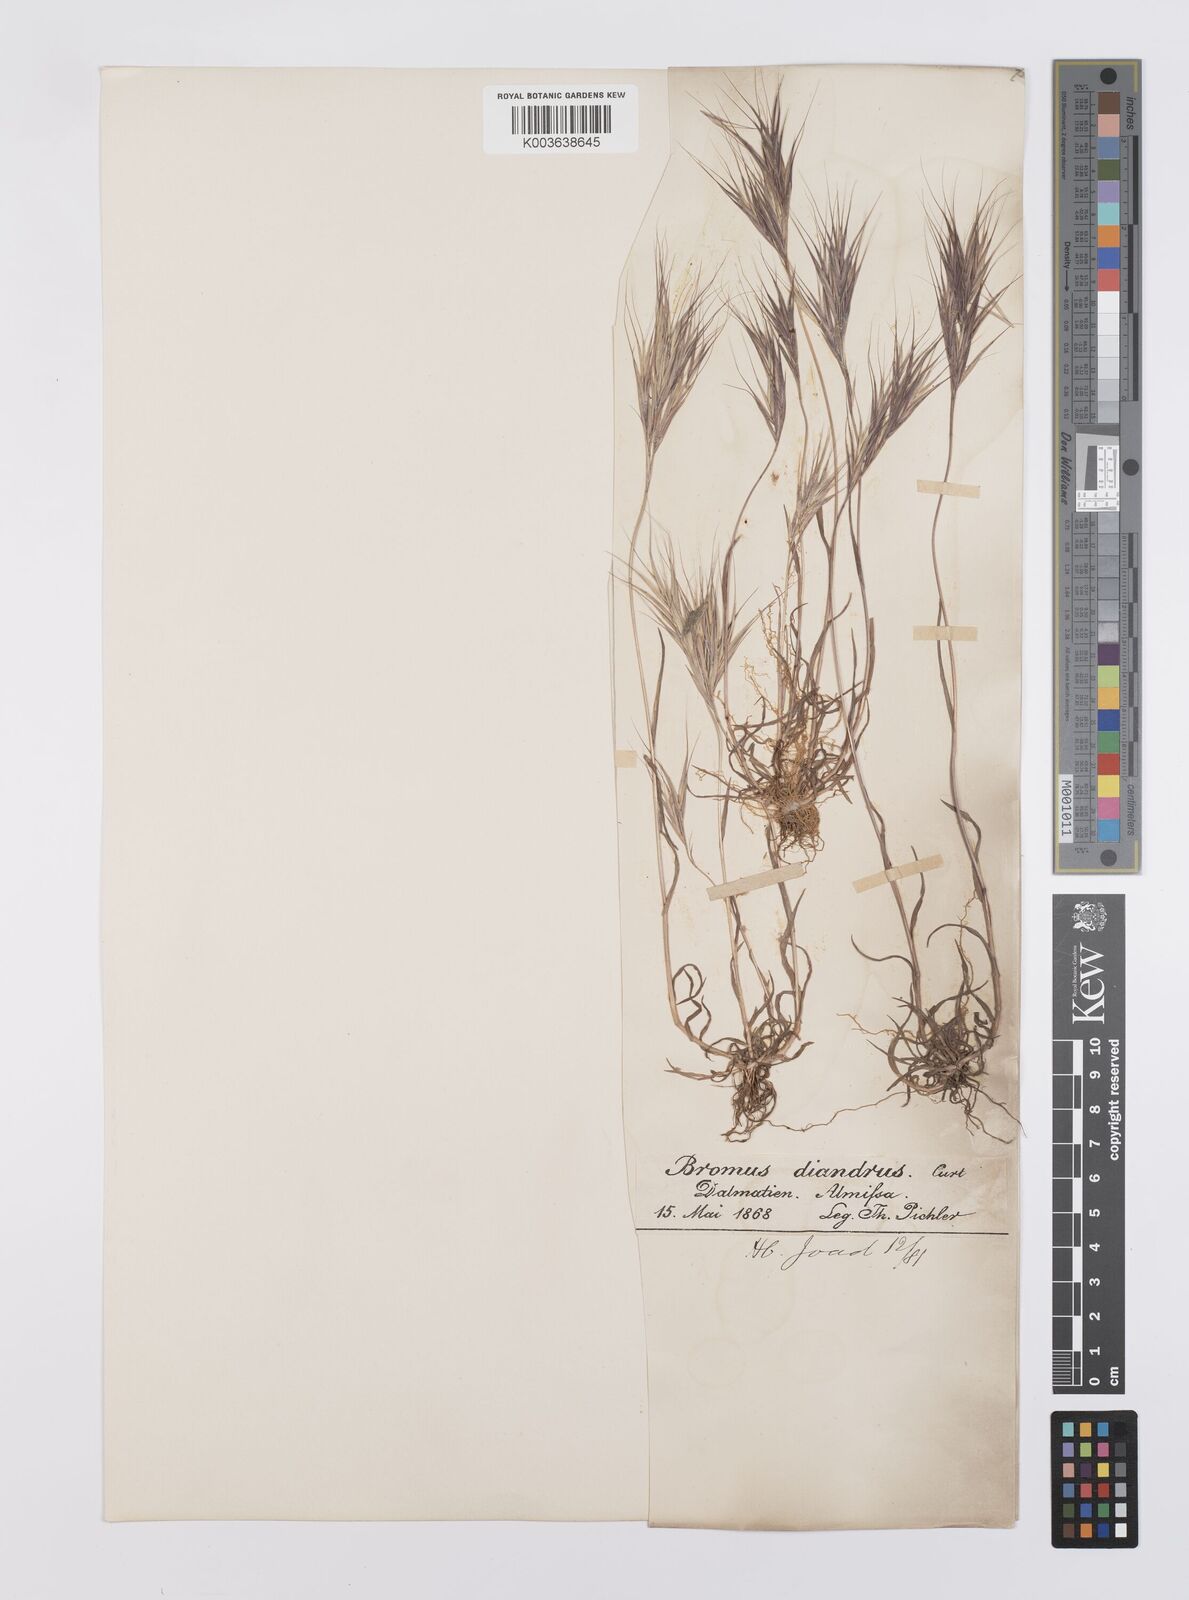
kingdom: Plantae
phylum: Tracheophyta
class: Liliopsida
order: Poales
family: Poaceae
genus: Bromus
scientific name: Bromus madritensis
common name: Compact brome
